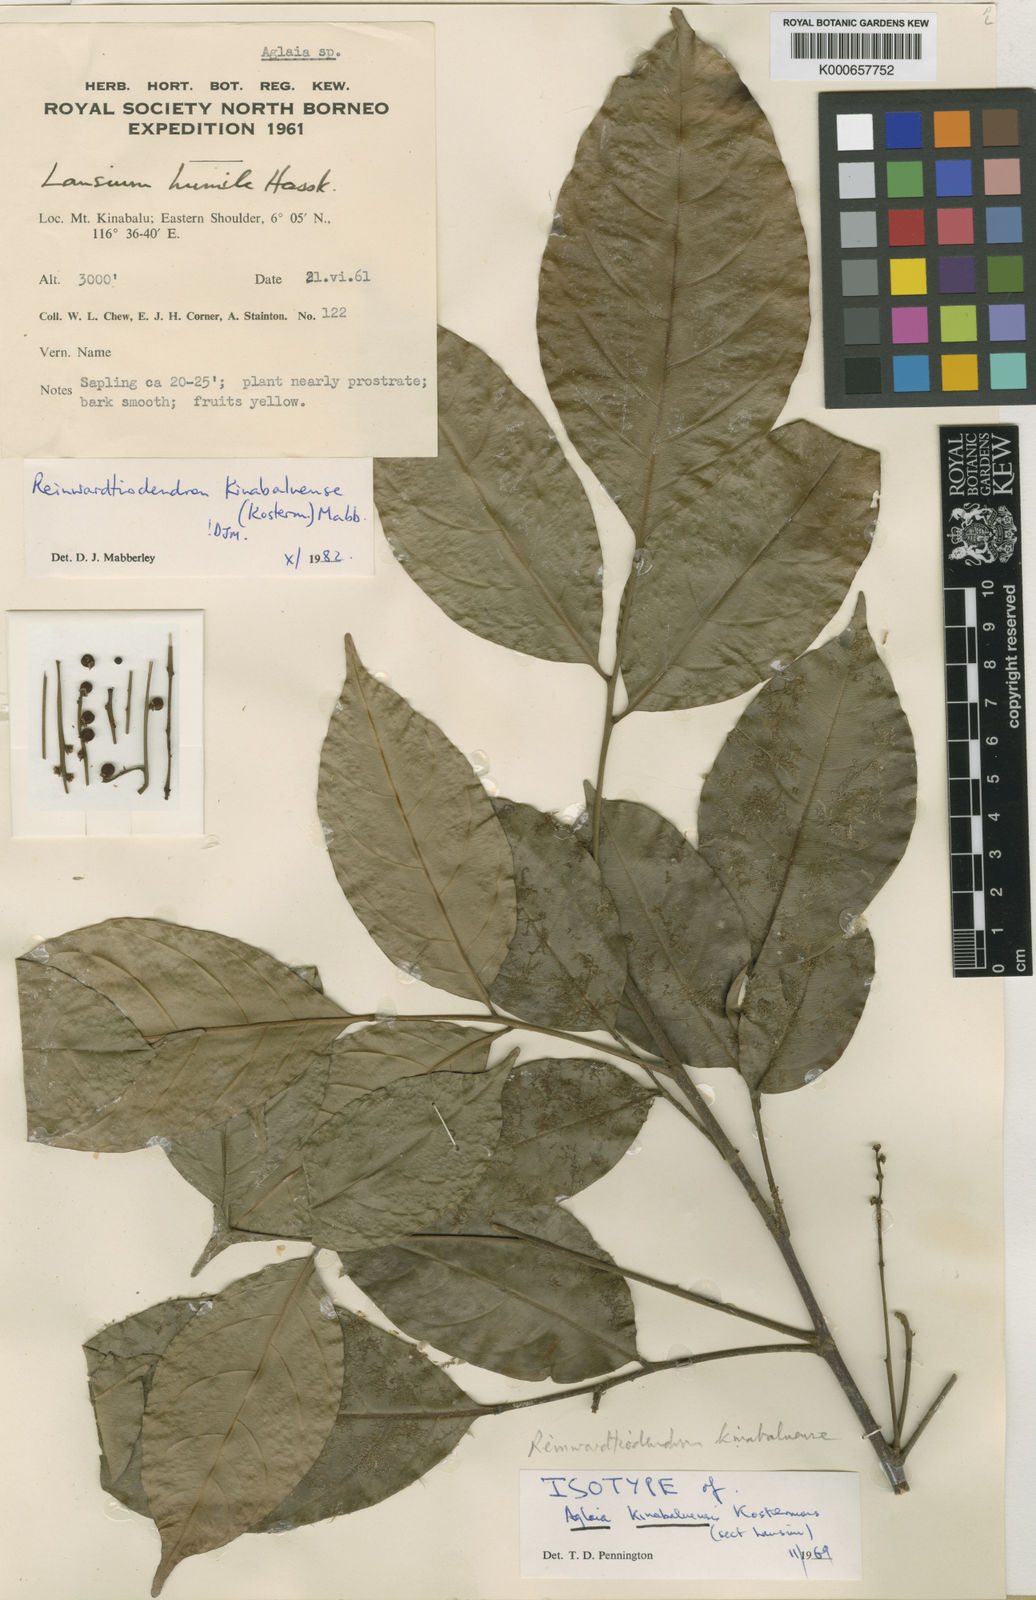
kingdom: Plantae
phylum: Tracheophyta
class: Magnoliopsida
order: Sapindales
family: Meliaceae
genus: Reinwardtiodendron
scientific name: Reinwardtiodendron kinabaluense
